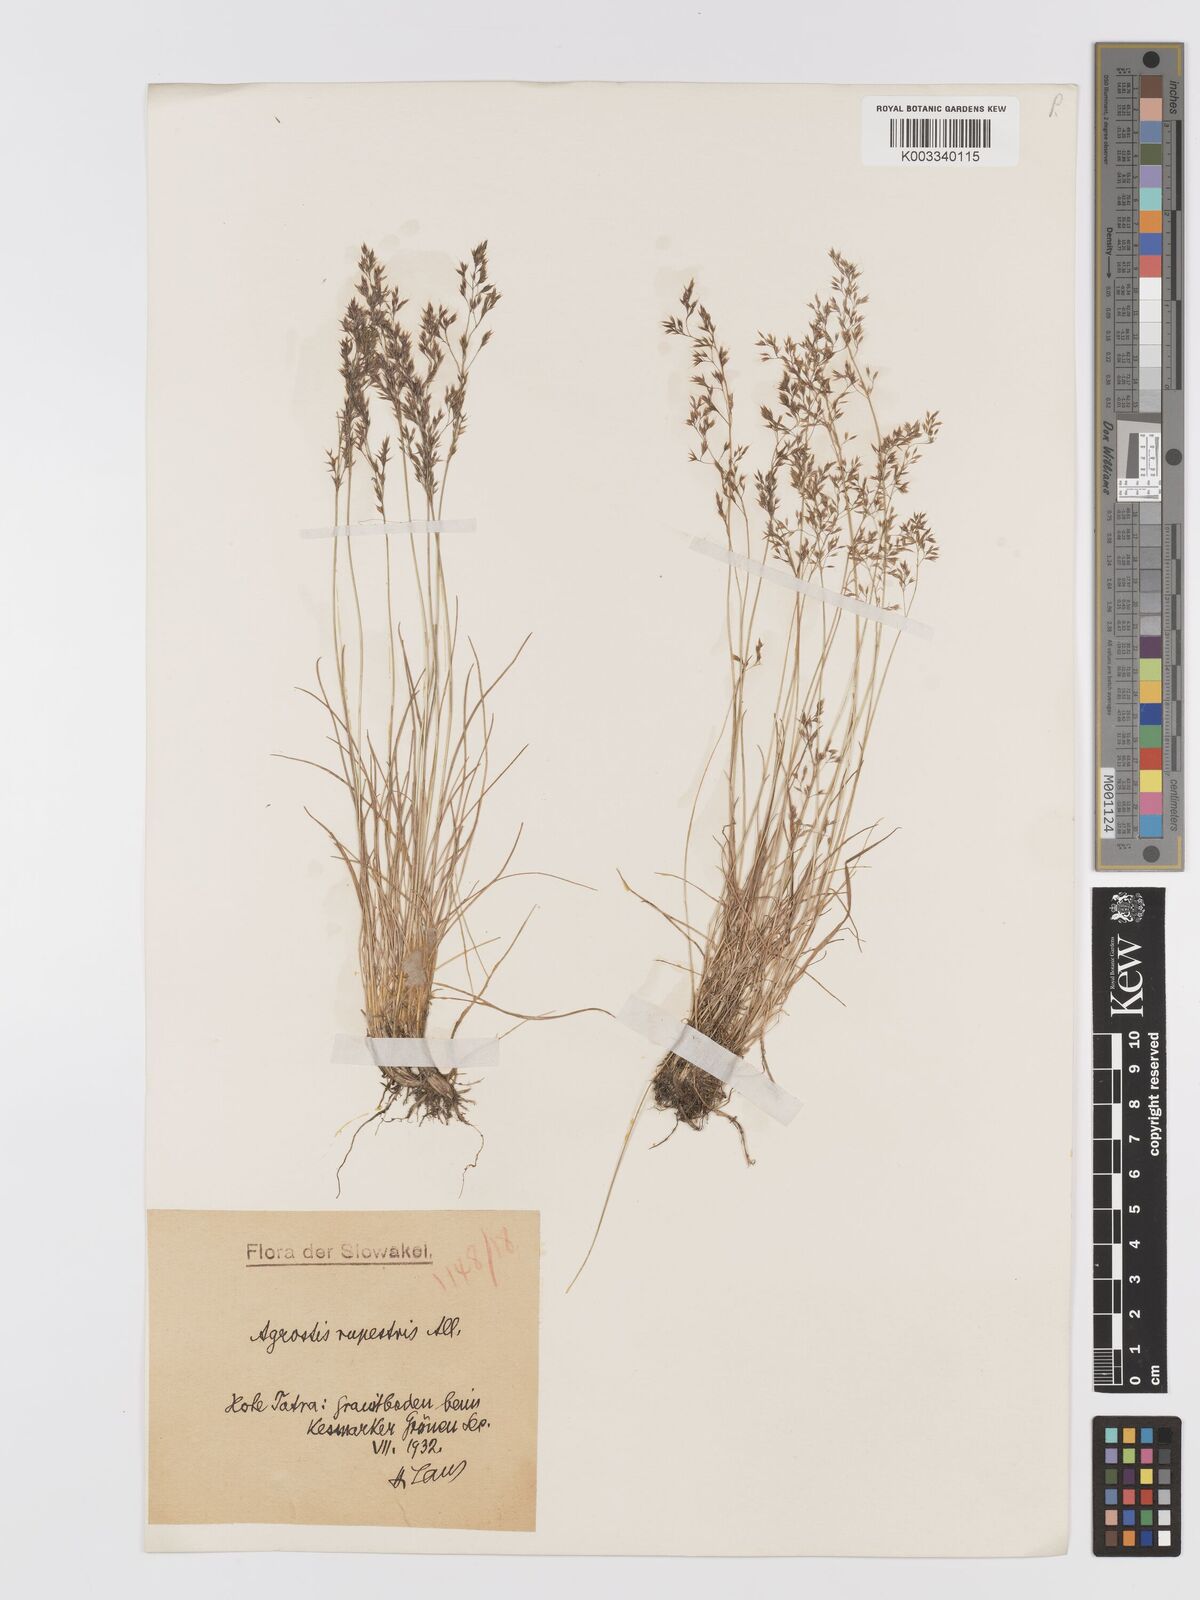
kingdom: Plantae
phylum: Tracheophyta
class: Liliopsida
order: Poales
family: Poaceae
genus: Agrostis
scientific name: Agrostis rupestris
